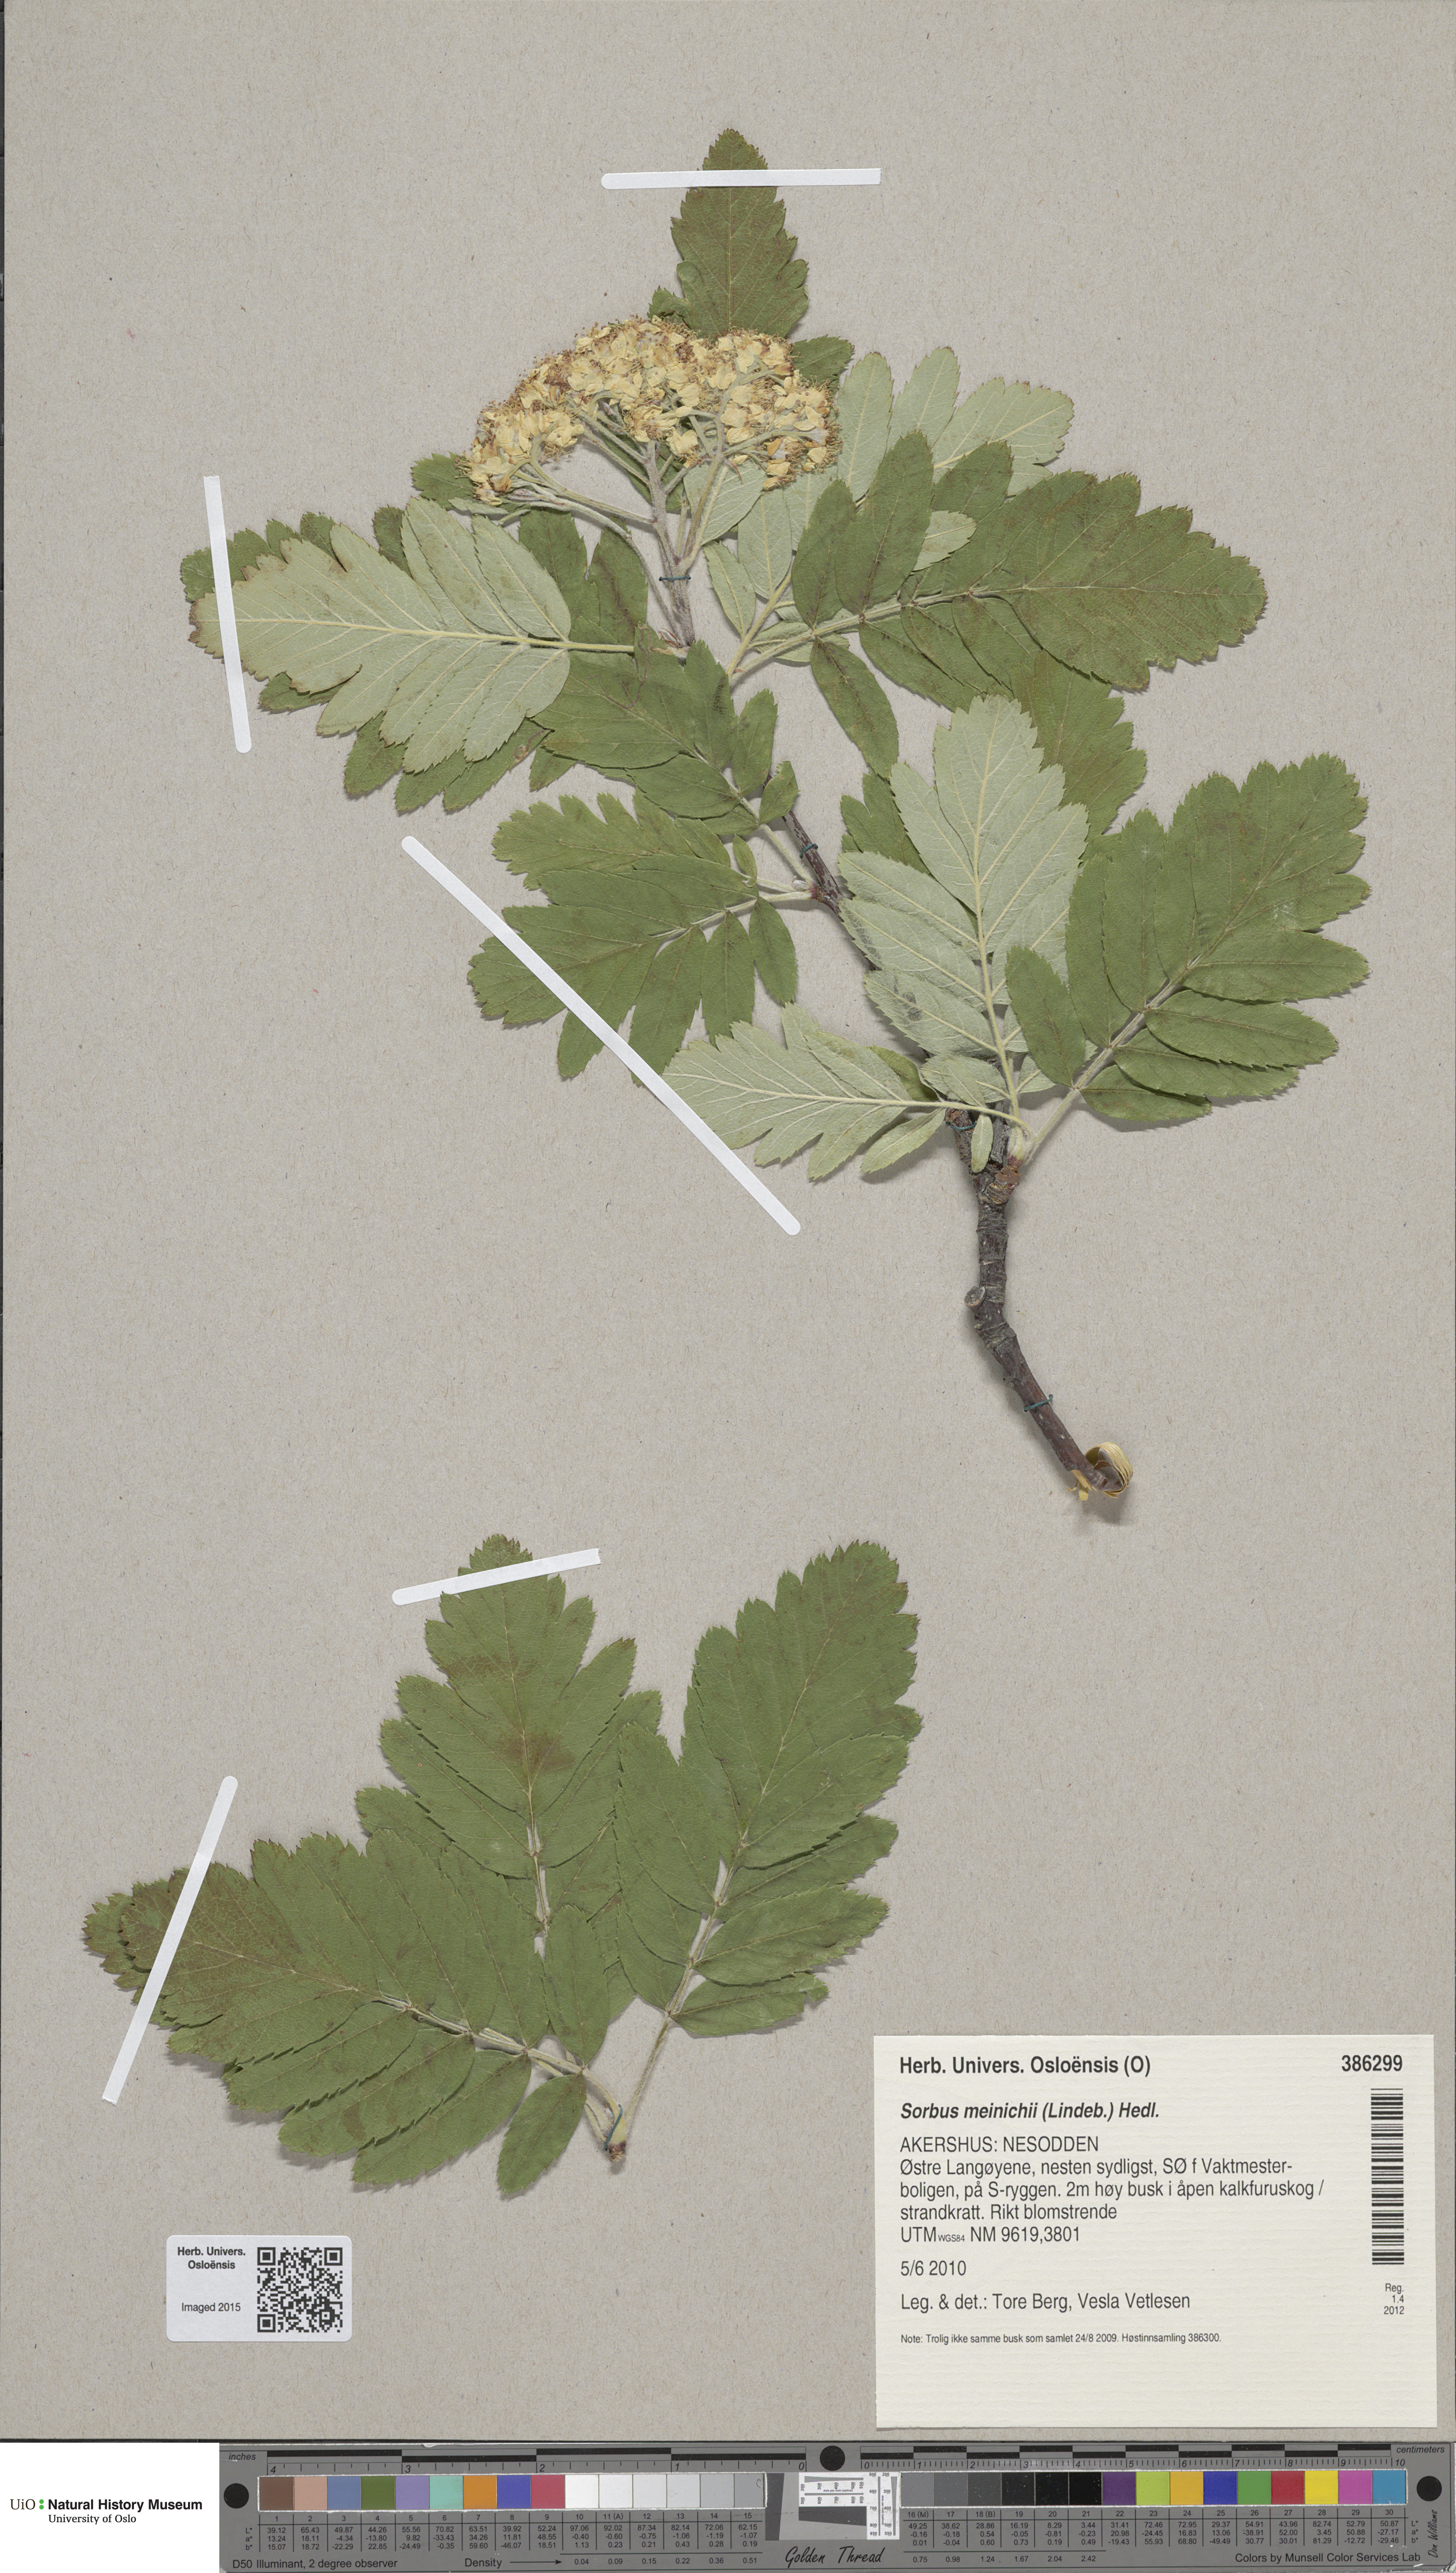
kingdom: Plantae
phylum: Tracheophyta
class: Magnoliopsida
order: Rosales
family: Rosaceae
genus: Hedlundia
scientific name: Hedlundia meinichii
